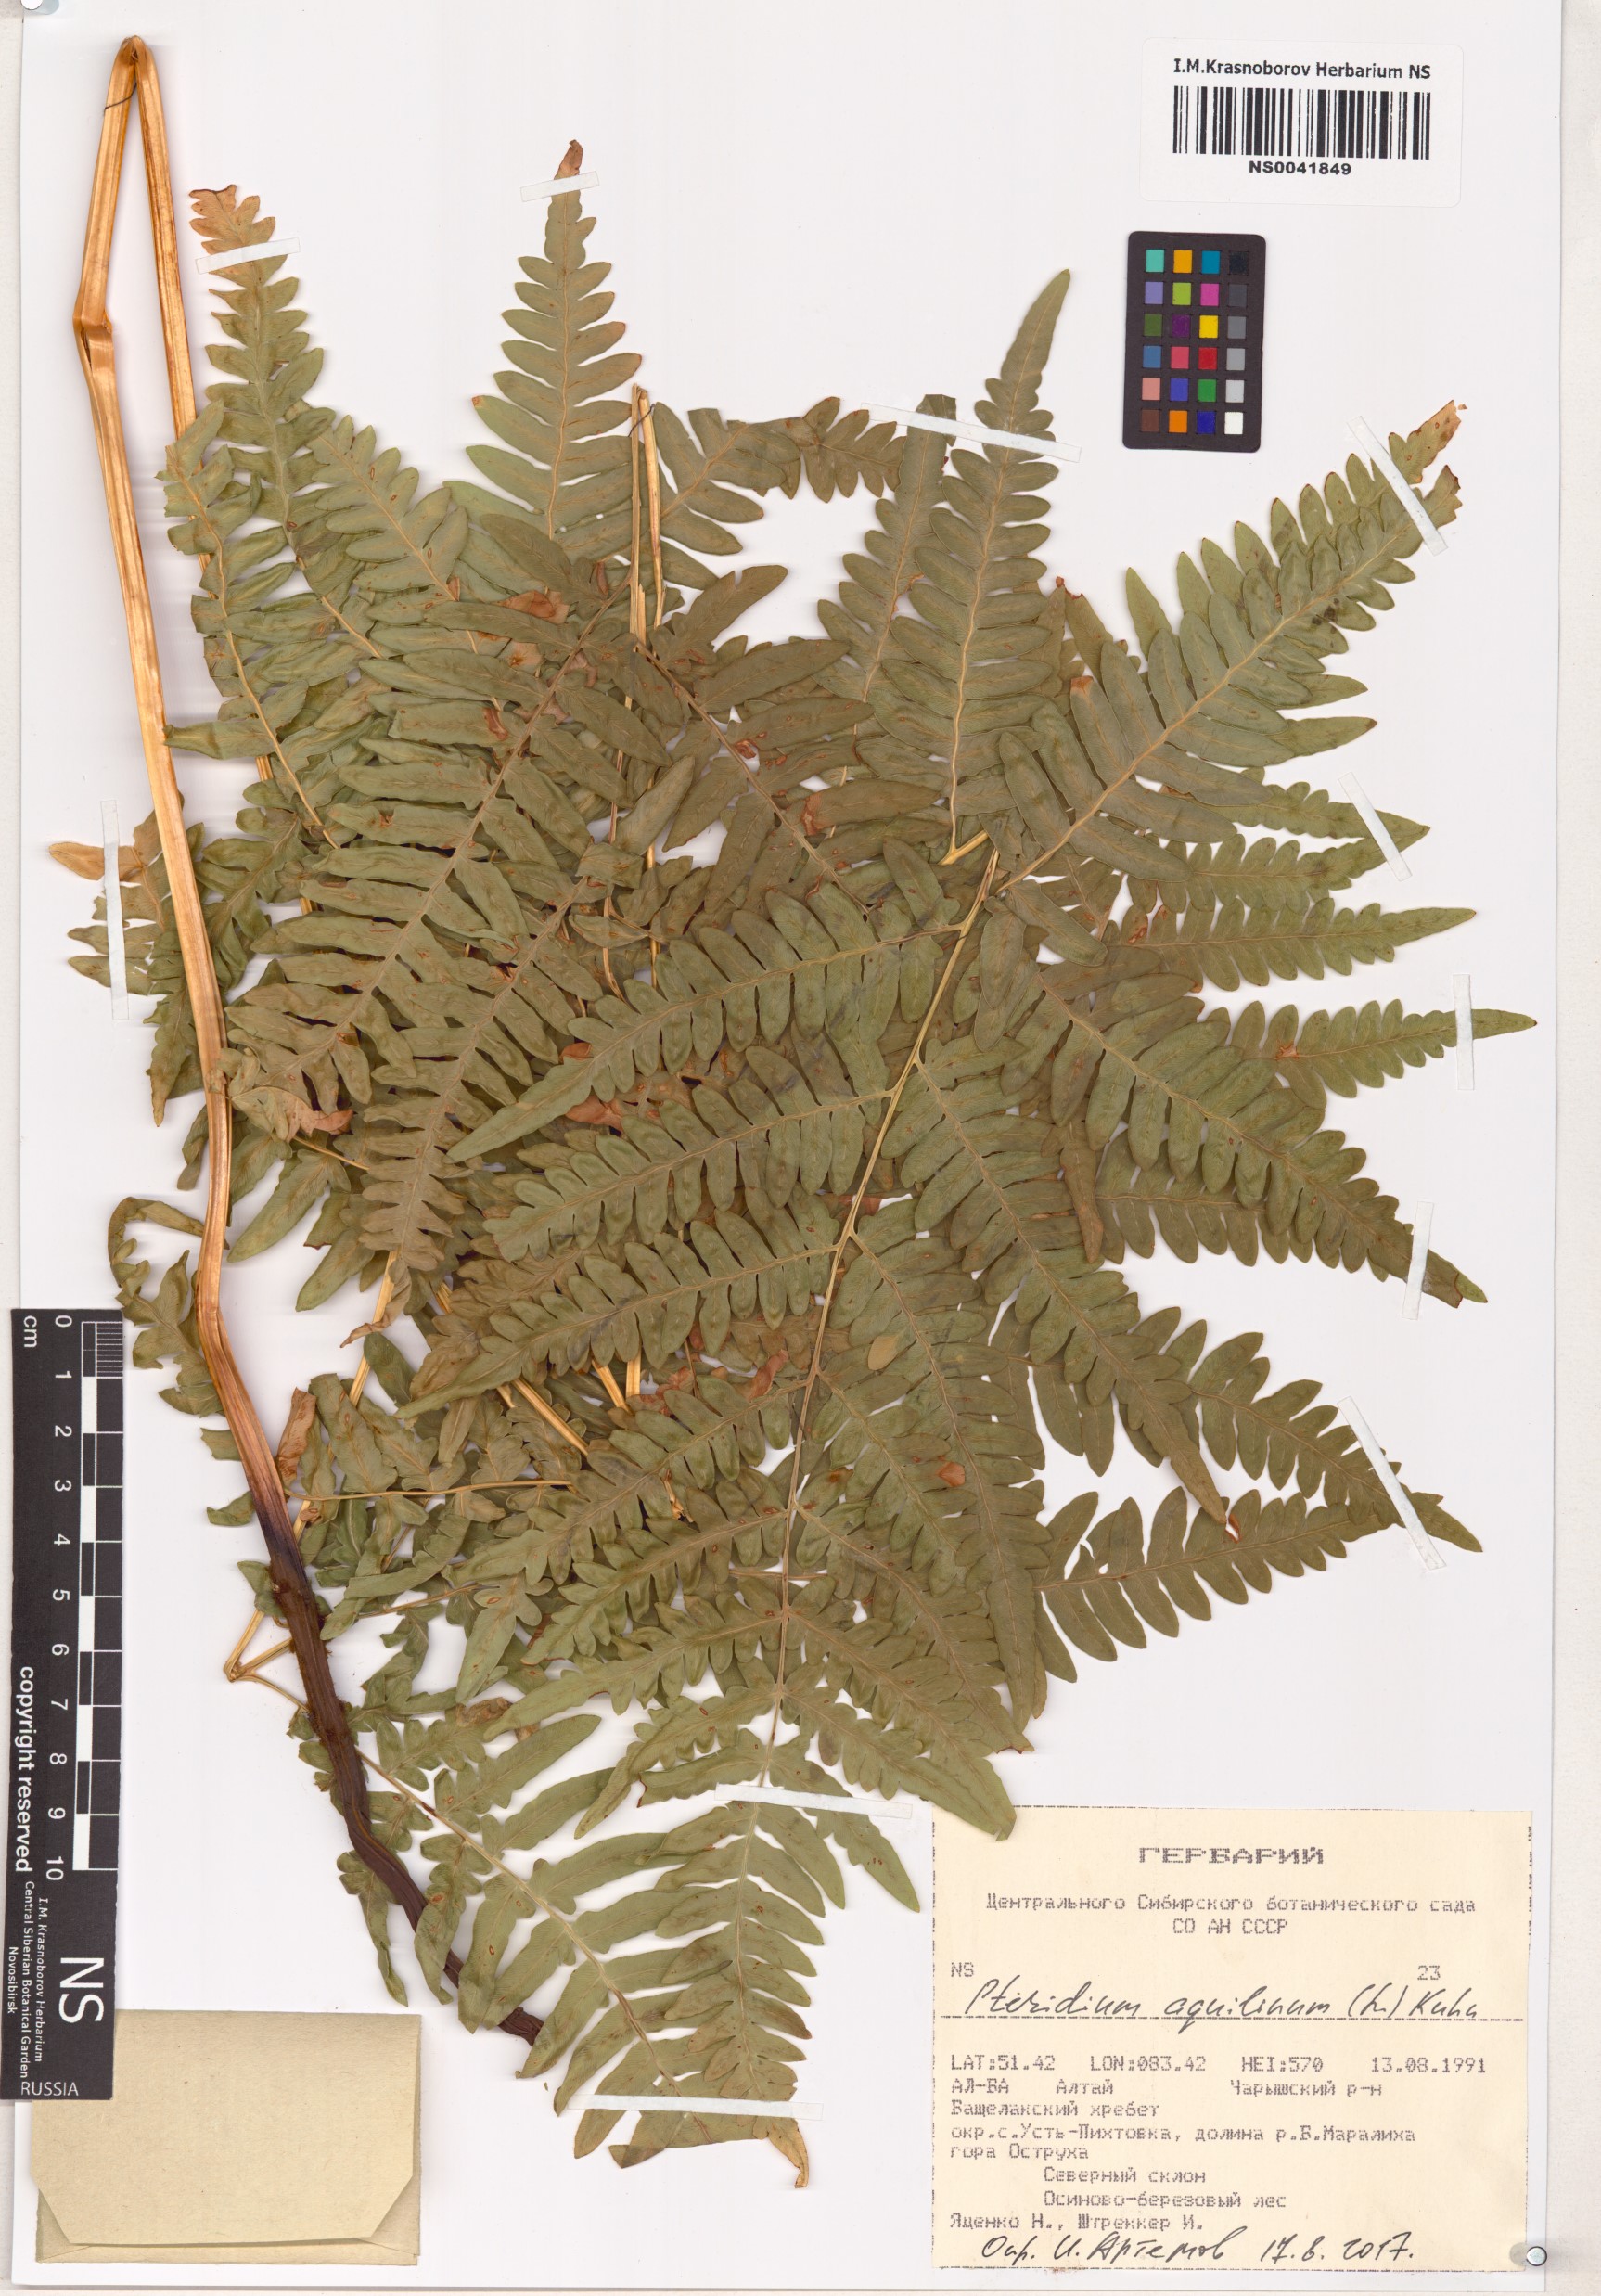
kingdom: Plantae
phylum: Tracheophyta
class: Polypodiopsida
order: Polypodiales
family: Dennstaedtiaceae
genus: Pteridium
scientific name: Pteridium aquilinum
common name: Bracken
